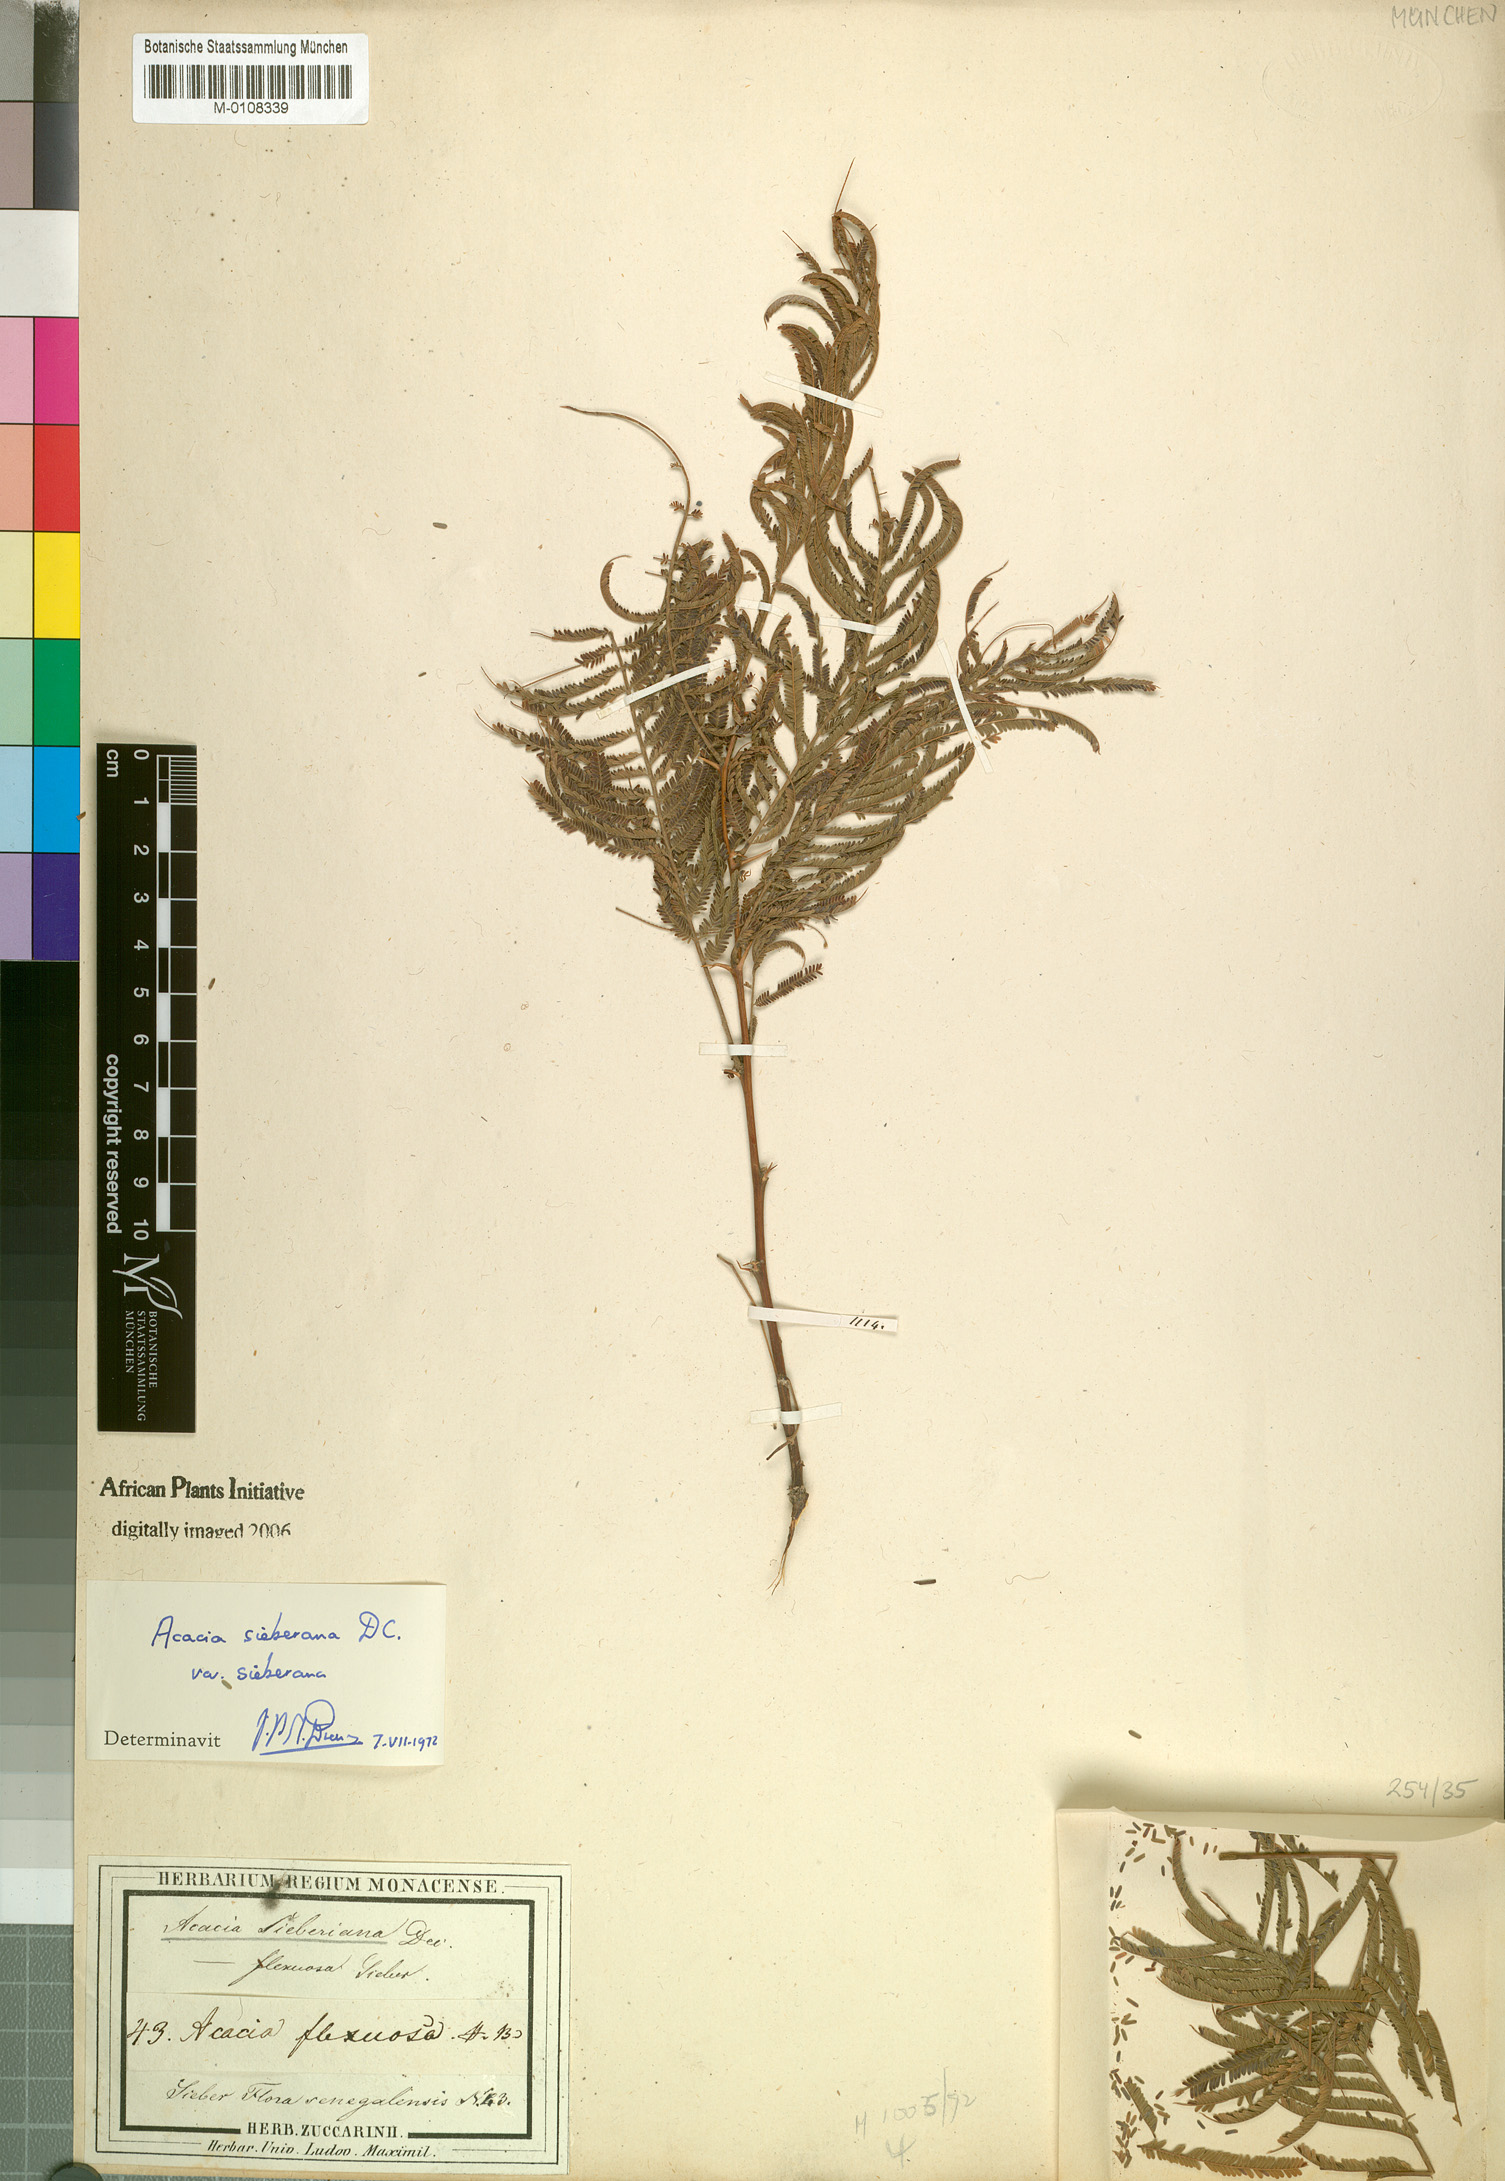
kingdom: Plantae
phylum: Tracheophyta
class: Magnoliopsida
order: Fabales
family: Fabaceae
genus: Vachellia
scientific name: Vachellia sieberiana
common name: Flat-topped thorn
